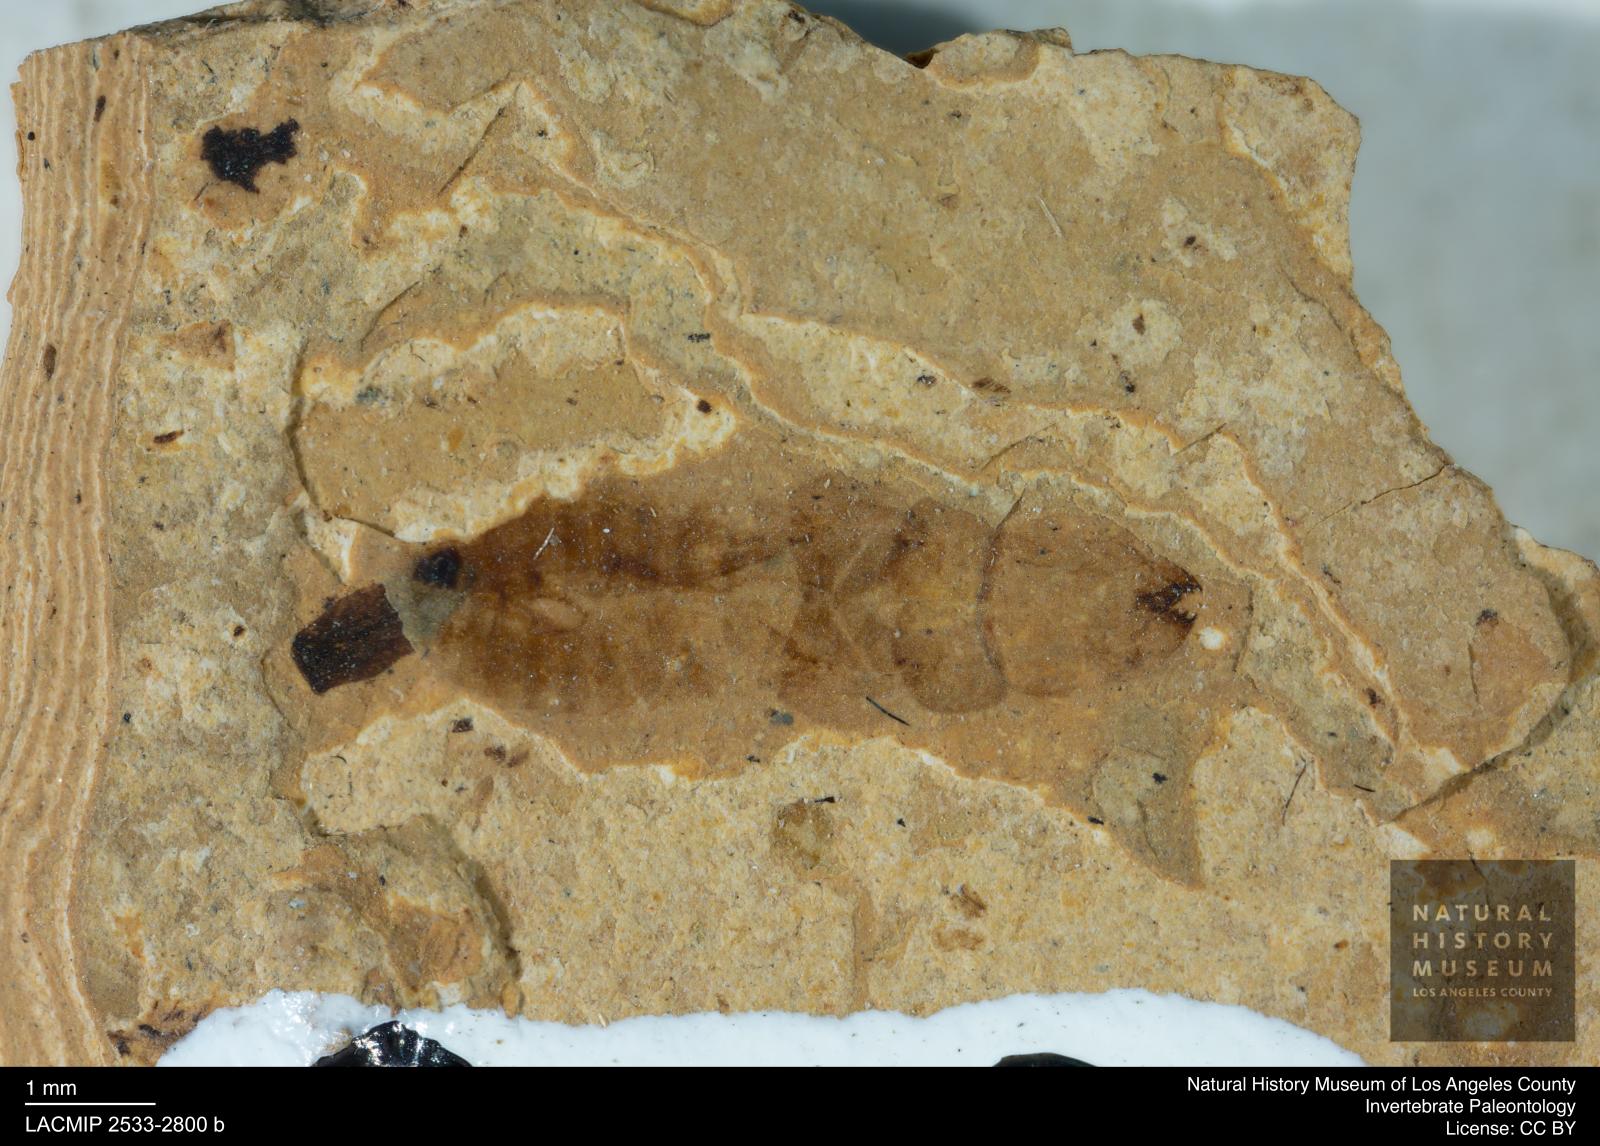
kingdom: Animalia
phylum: Arthropoda
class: Insecta
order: Blattodea
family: Kalotermitidae
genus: Kalotermes
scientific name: Kalotermes rhenanus
